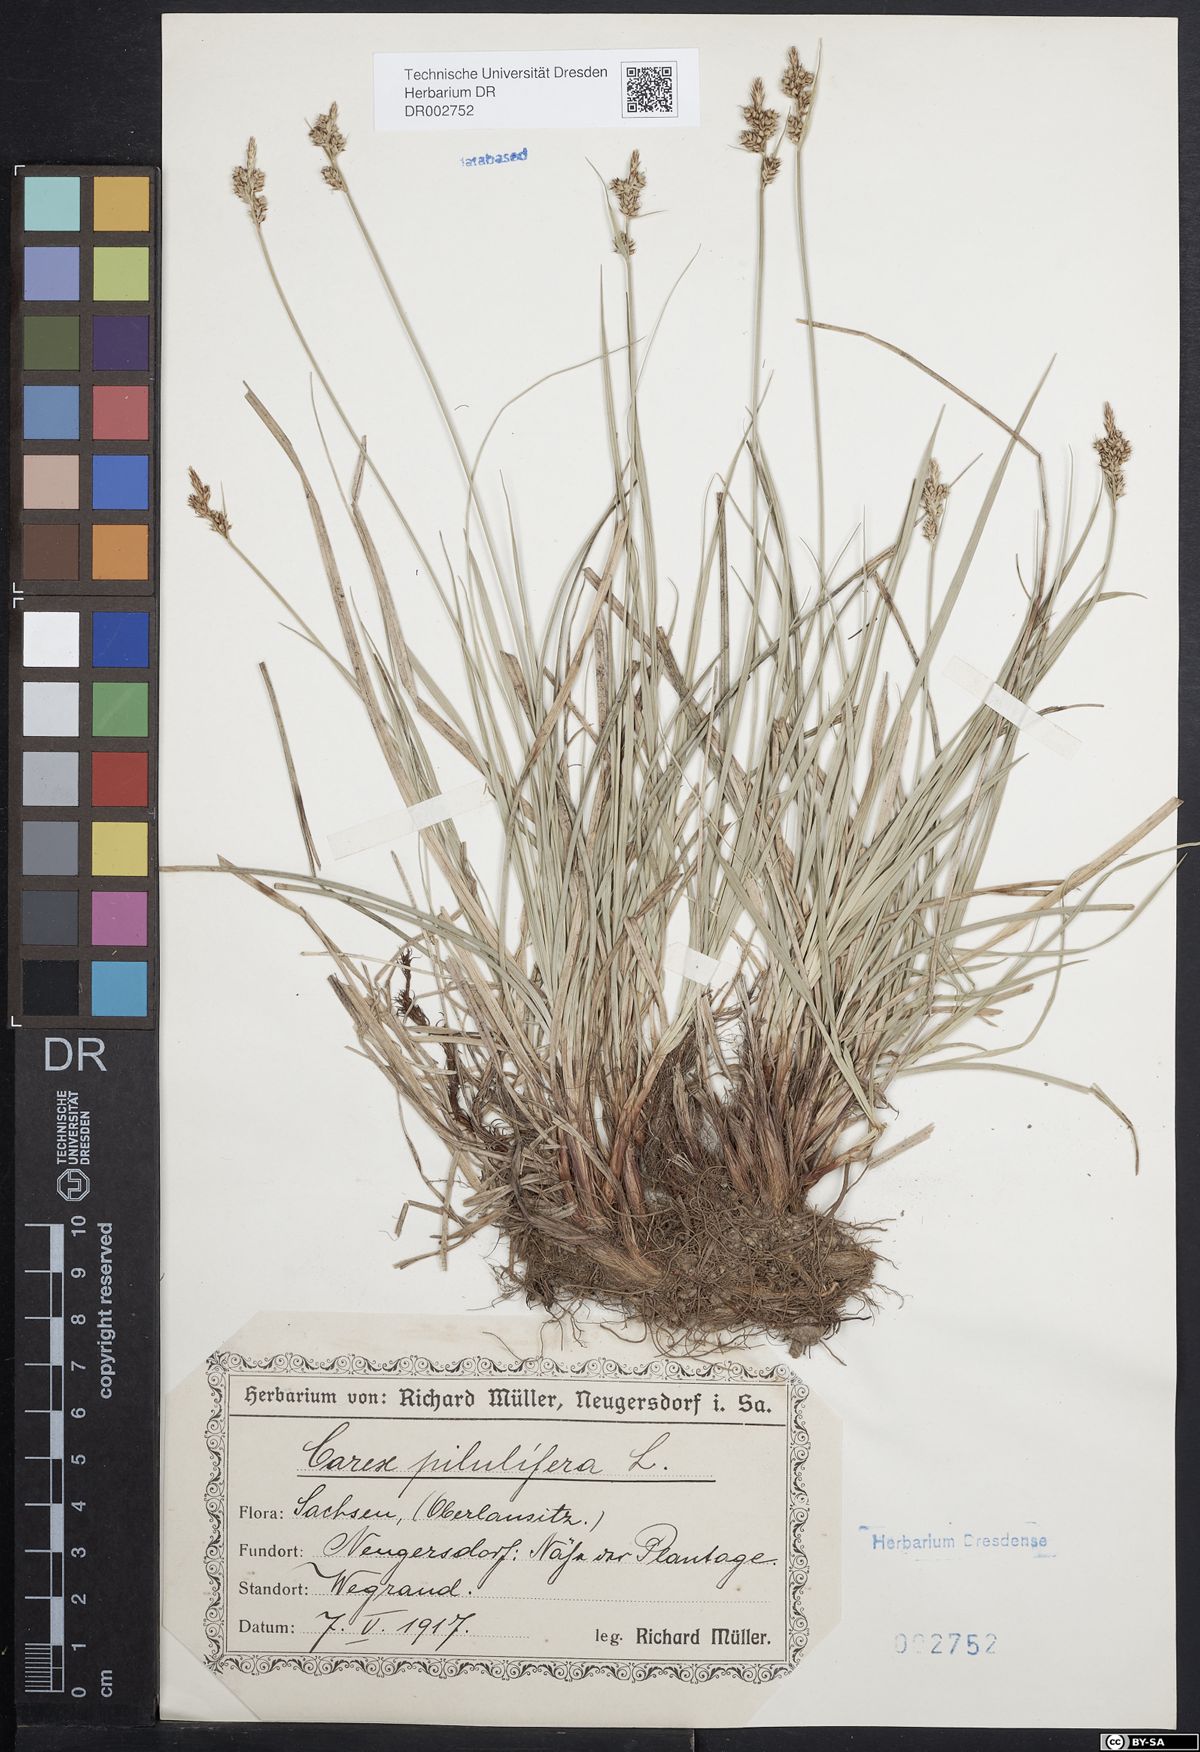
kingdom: Plantae
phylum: Tracheophyta
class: Liliopsida
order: Poales
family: Cyperaceae
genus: Carex
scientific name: Carex caryophyllea
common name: Spring sedge
